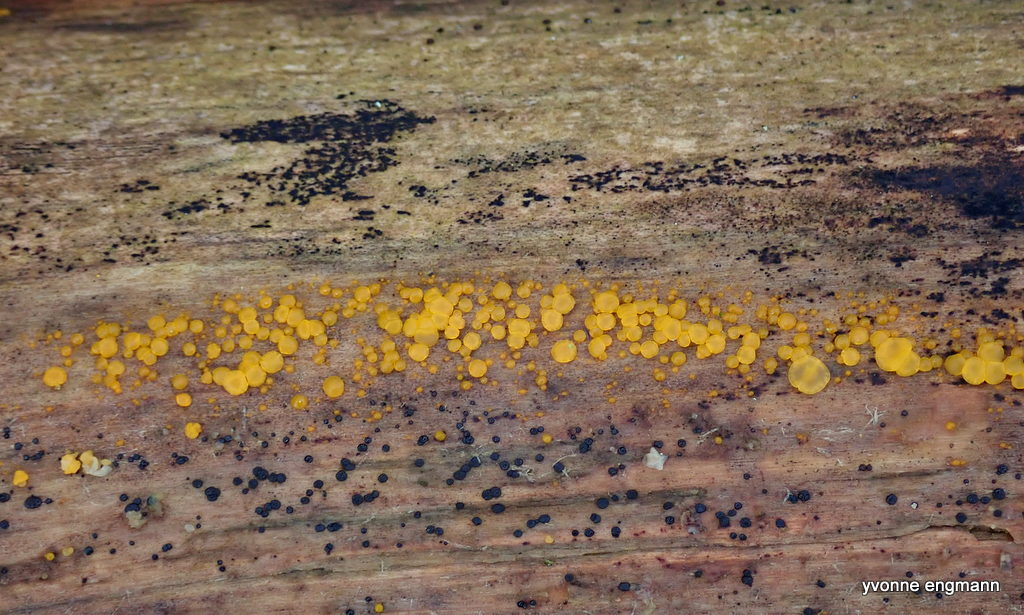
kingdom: Fungi
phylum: Ascomycota
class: Leotiomycetes
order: Helotiales
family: Pezizellaceae
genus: Calycina
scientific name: Calycina citrina
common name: almindelig gulskive
